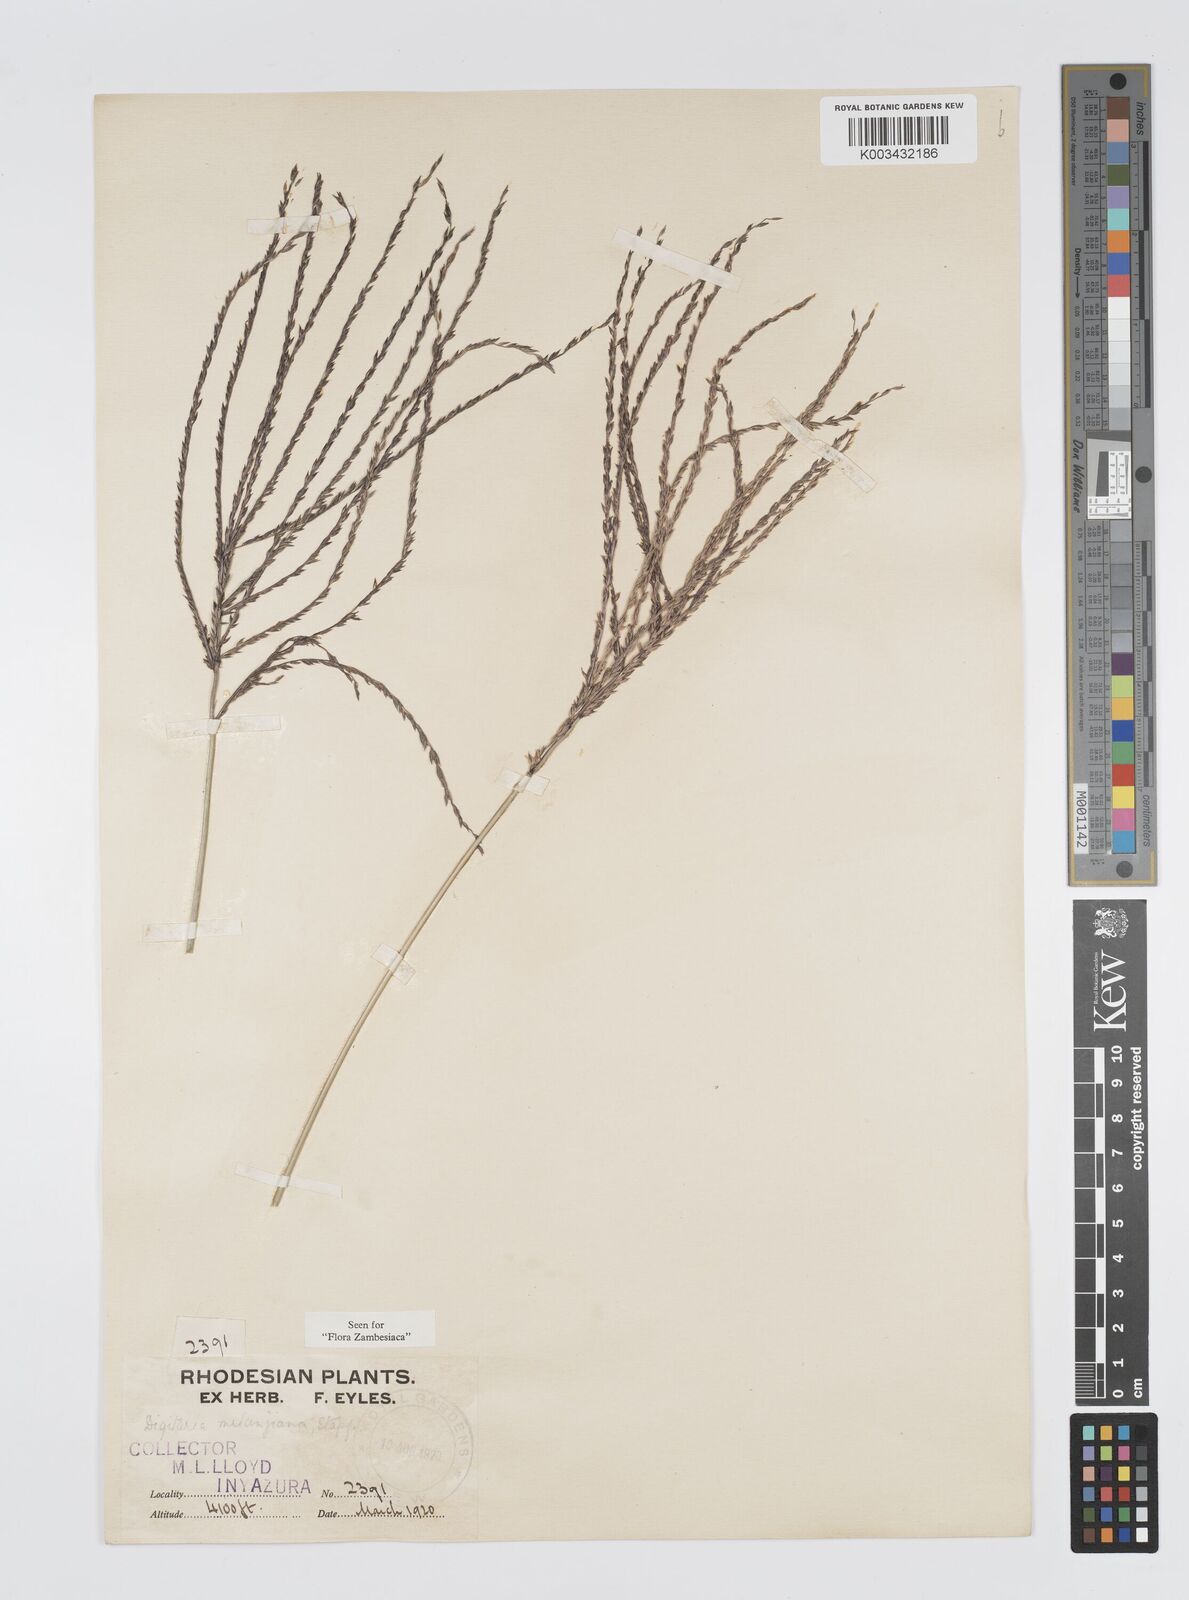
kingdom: Plantae
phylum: Tracheophyta
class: Liliopsida
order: Poales
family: Poaceae
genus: Digitaria
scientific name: Digitaria milanjiana
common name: Madagascar crabgrass
